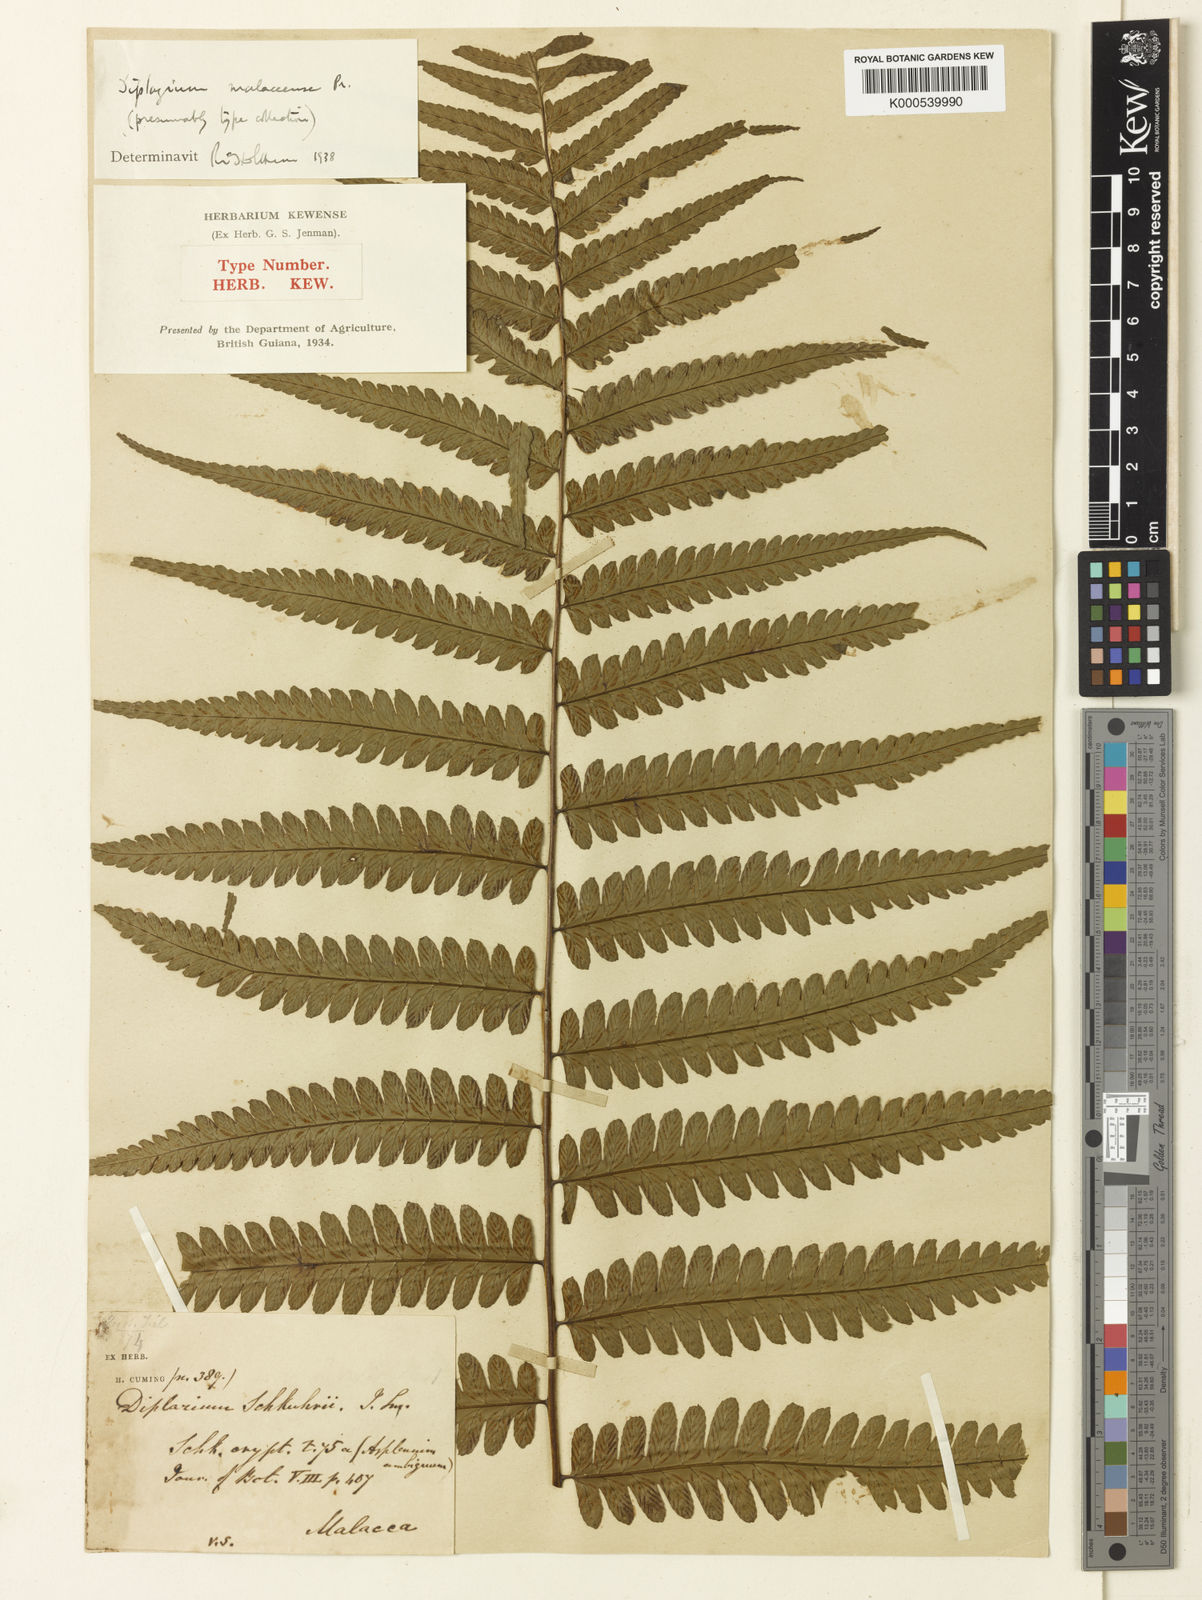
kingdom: Plantae
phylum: Tracheophyta
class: Polypodiopsida
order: Polypodiales
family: Athyriaceae
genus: Diplazium
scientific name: Diplazium holttumii
